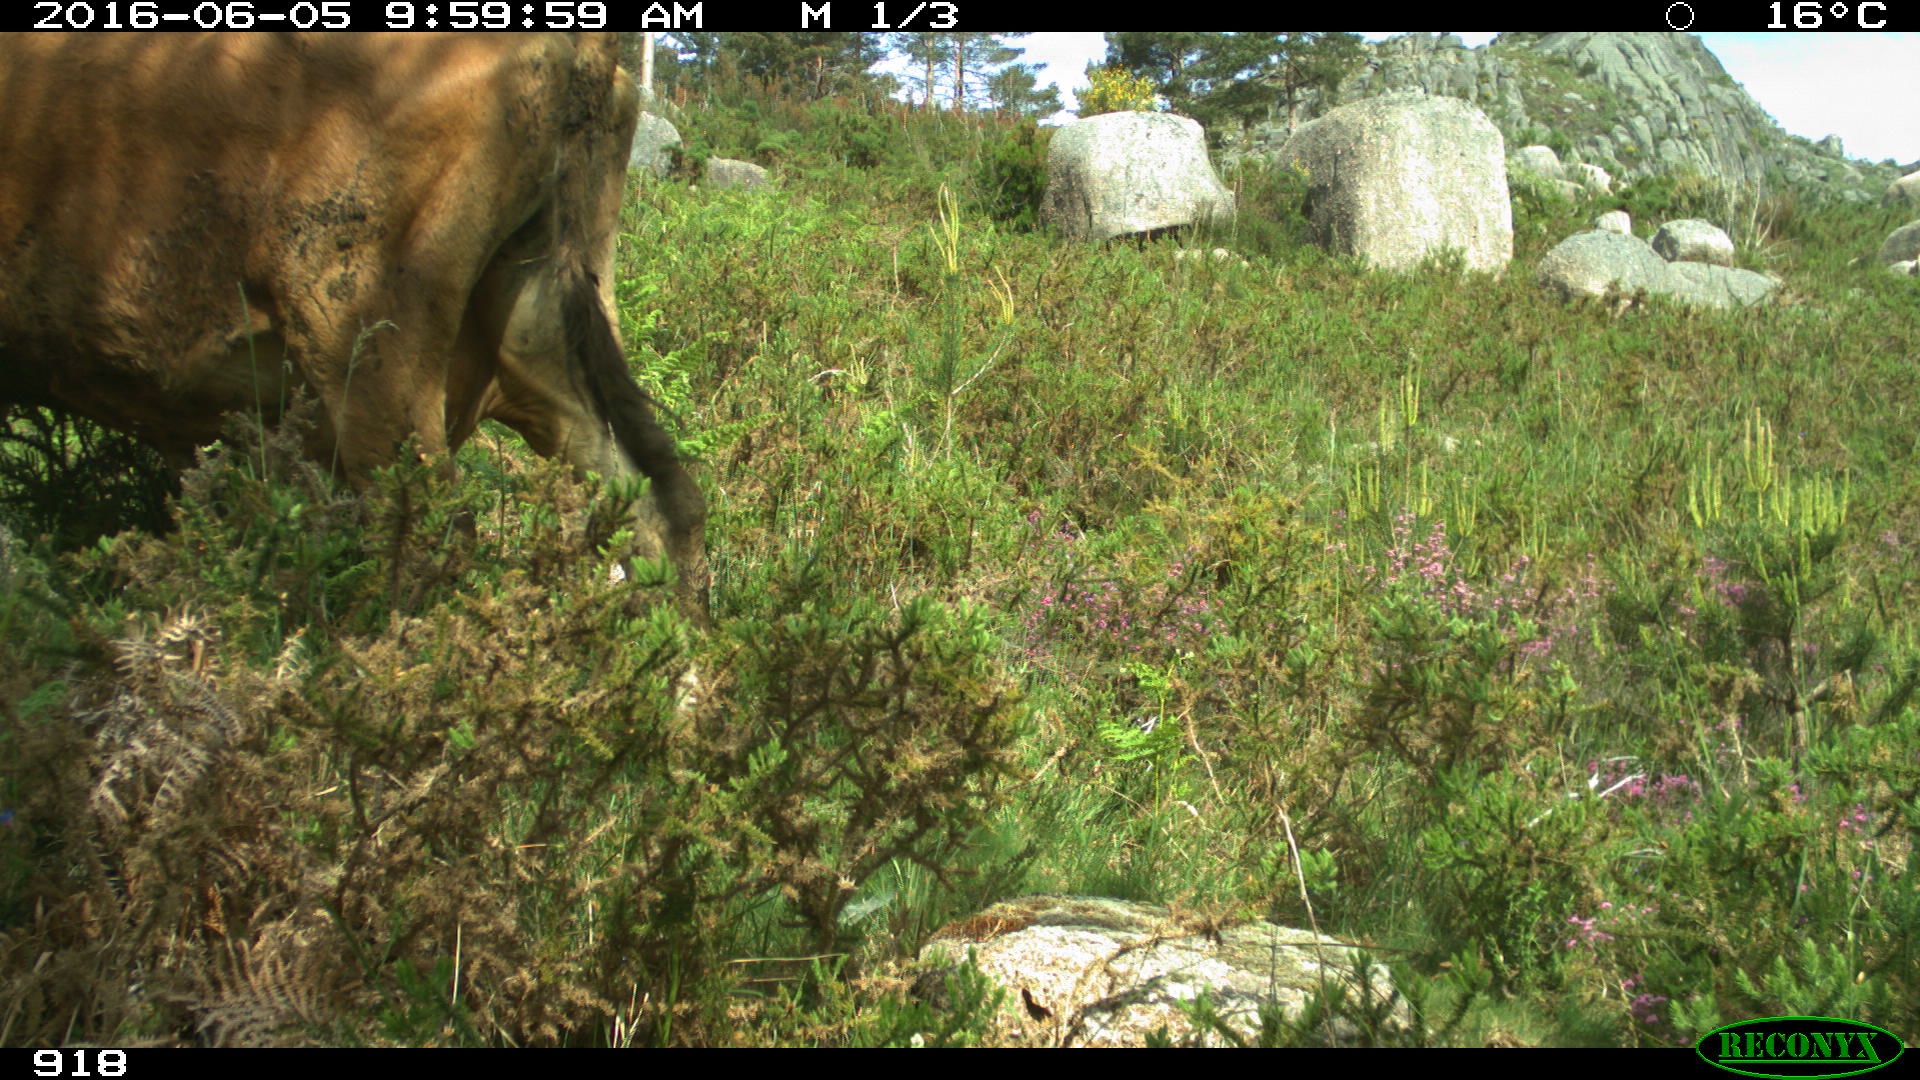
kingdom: Animalia
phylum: Chordata
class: Mammalia
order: Artiodactyla
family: Bovidae
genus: Bos
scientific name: Bos taurus
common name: Domesticated cattle
